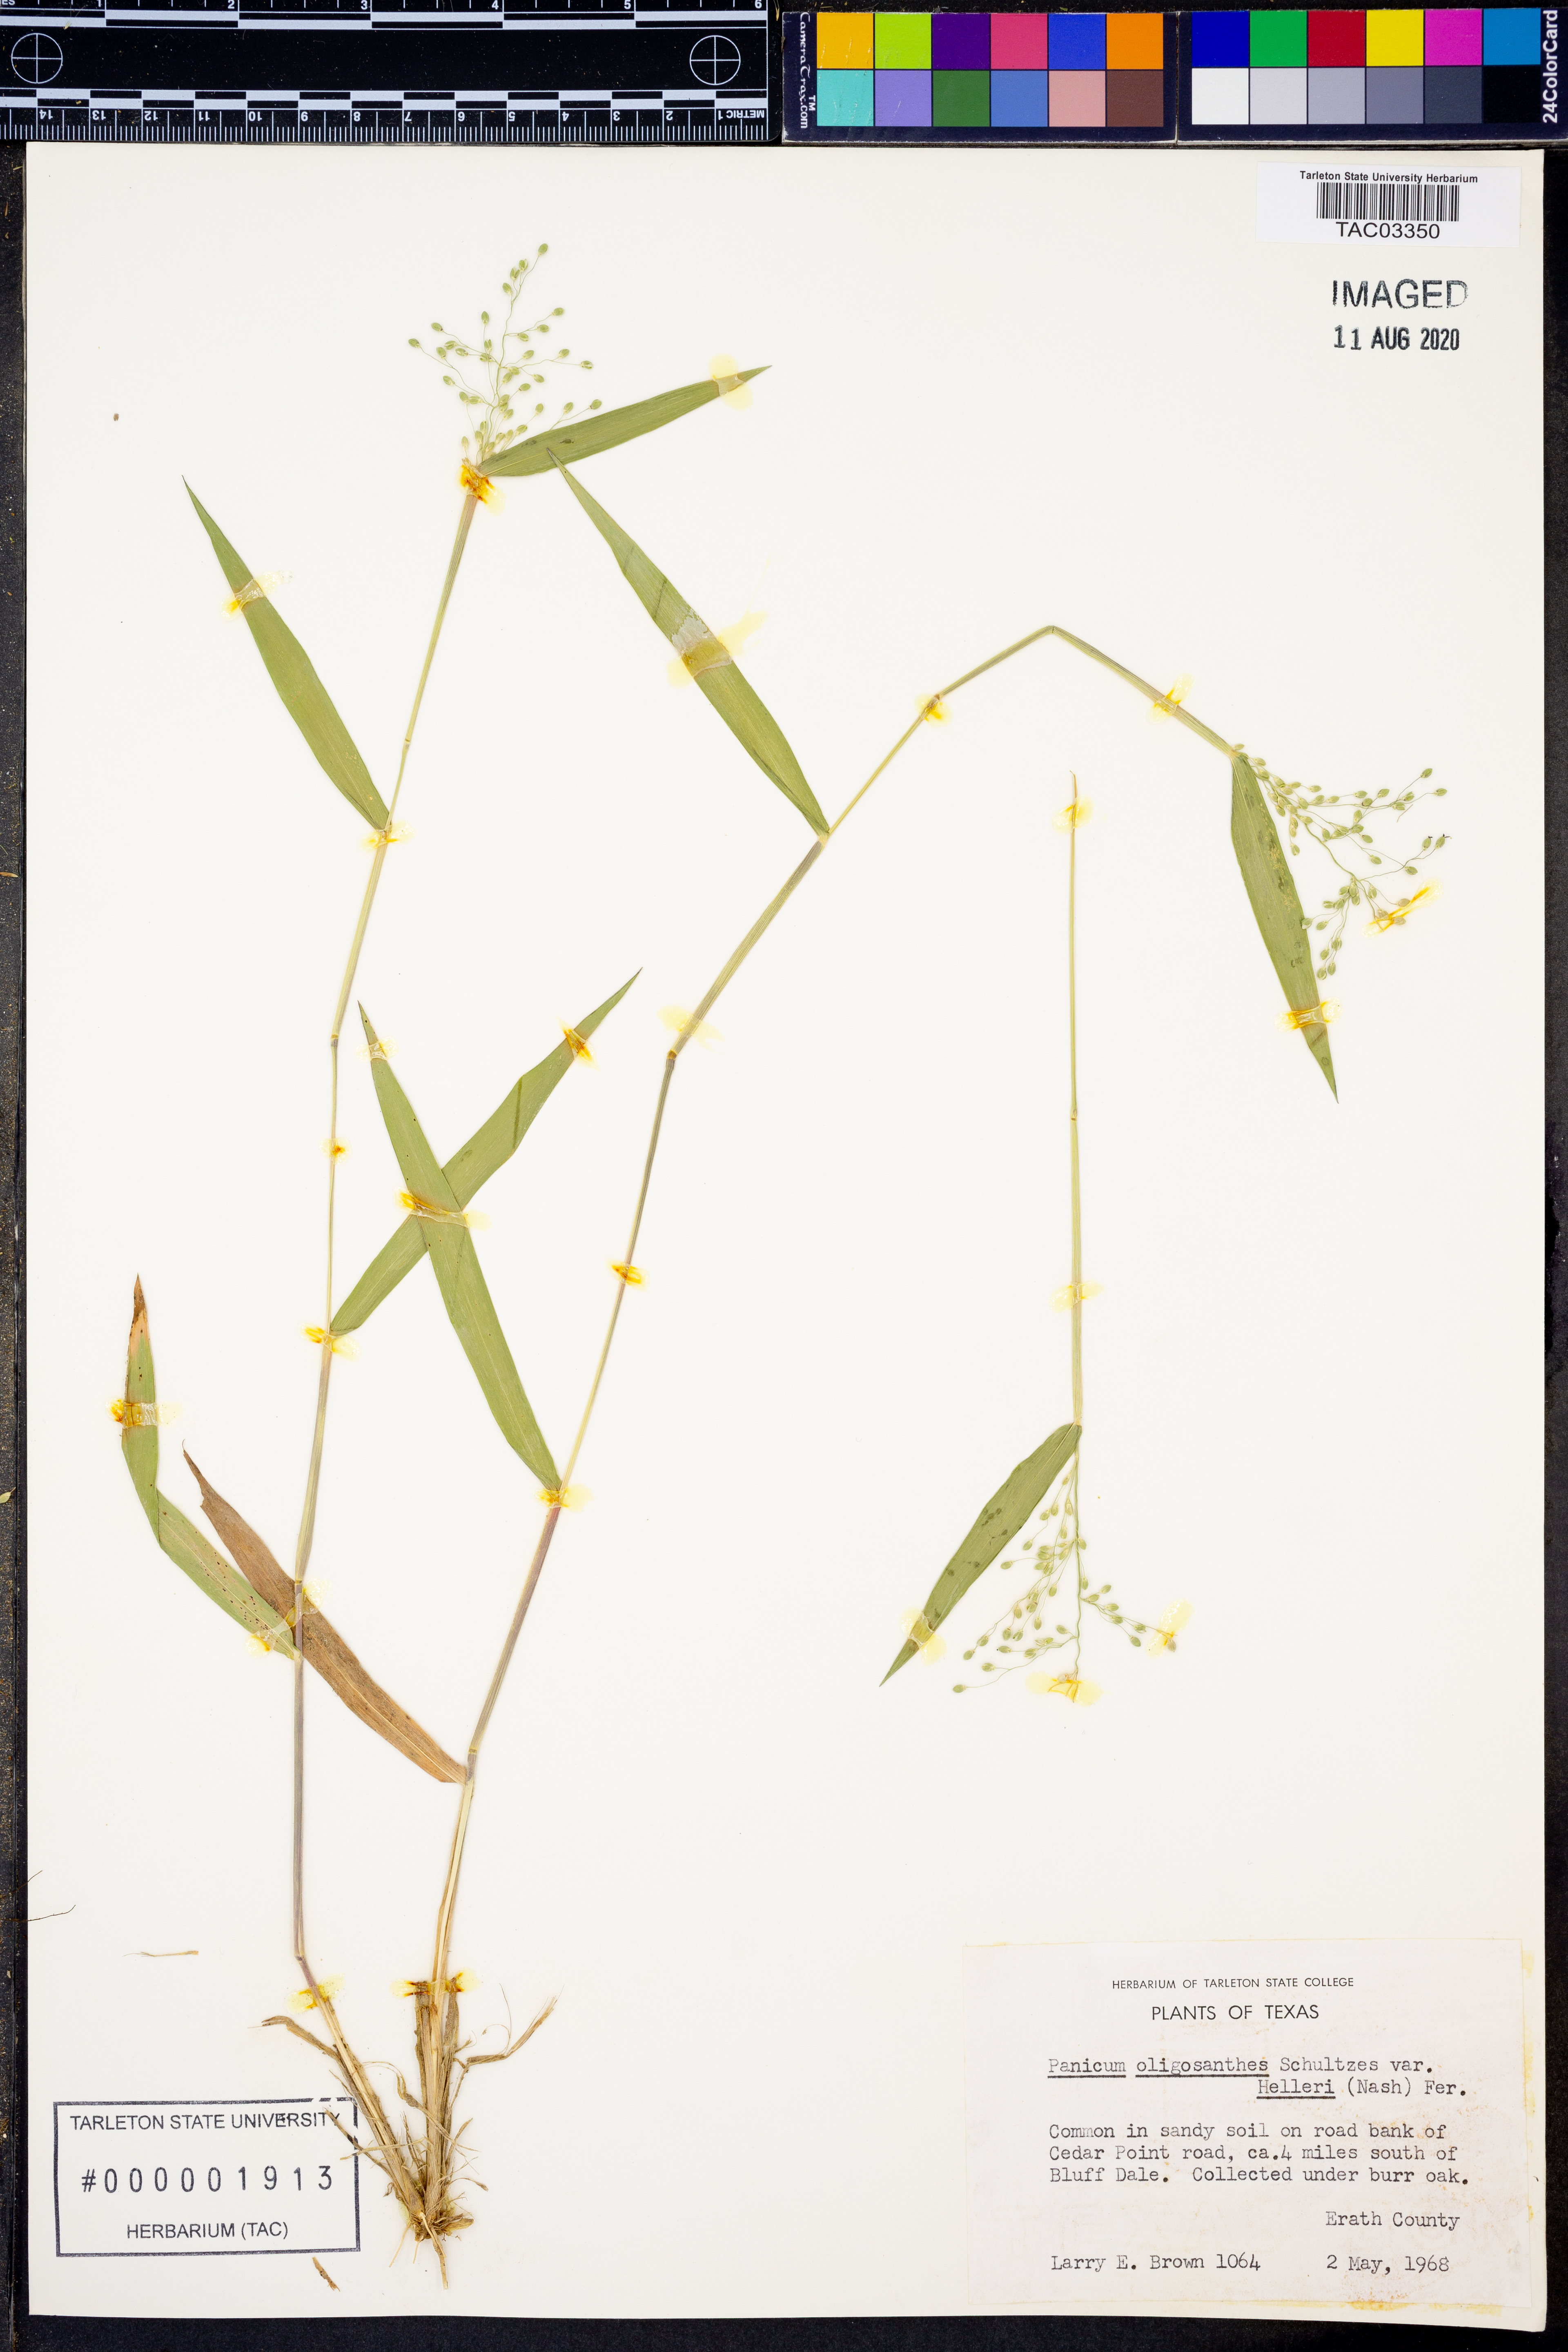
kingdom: Plantae
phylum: Tracheophyta
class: Liliopsida
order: Poales
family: Poaceae
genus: Dichanthelium
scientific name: Dichanthelium oligosanthes
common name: Few-anther obscuregrass
